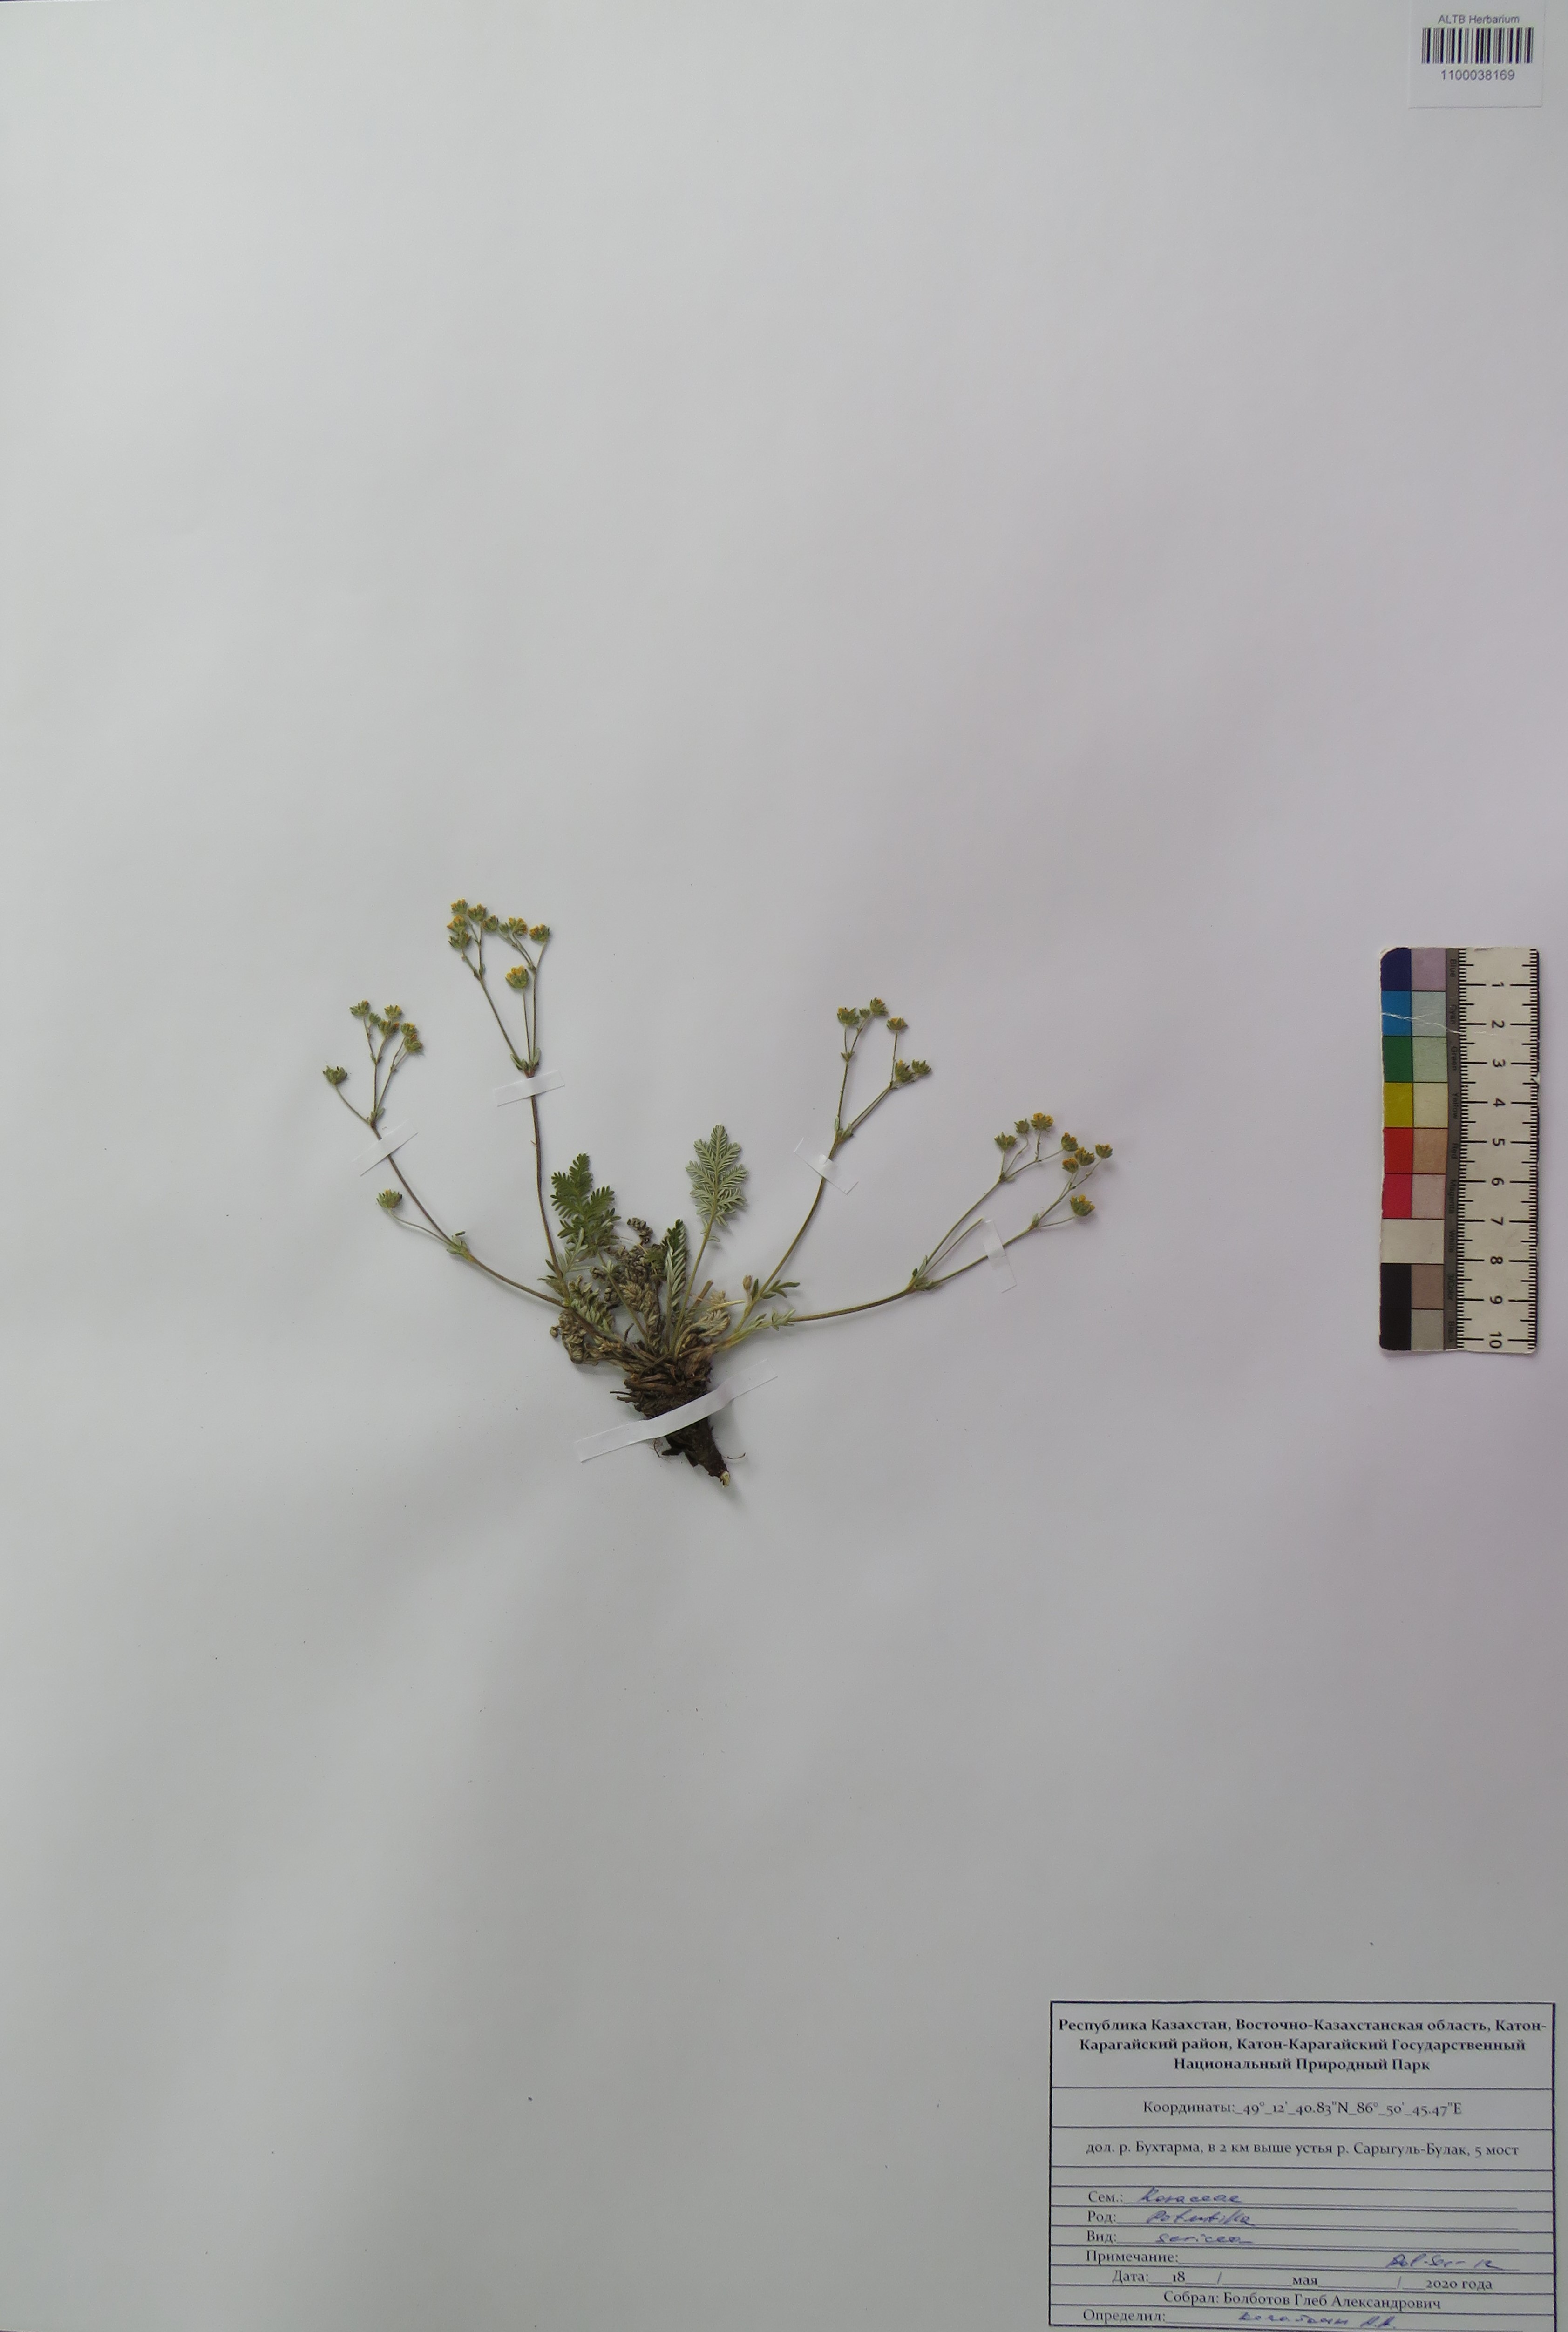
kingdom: Plantae
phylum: Tracheophyta
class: Magnoliopsida
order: Rosales
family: Rosaceae
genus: Potentilla
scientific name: Potentilla sericea
